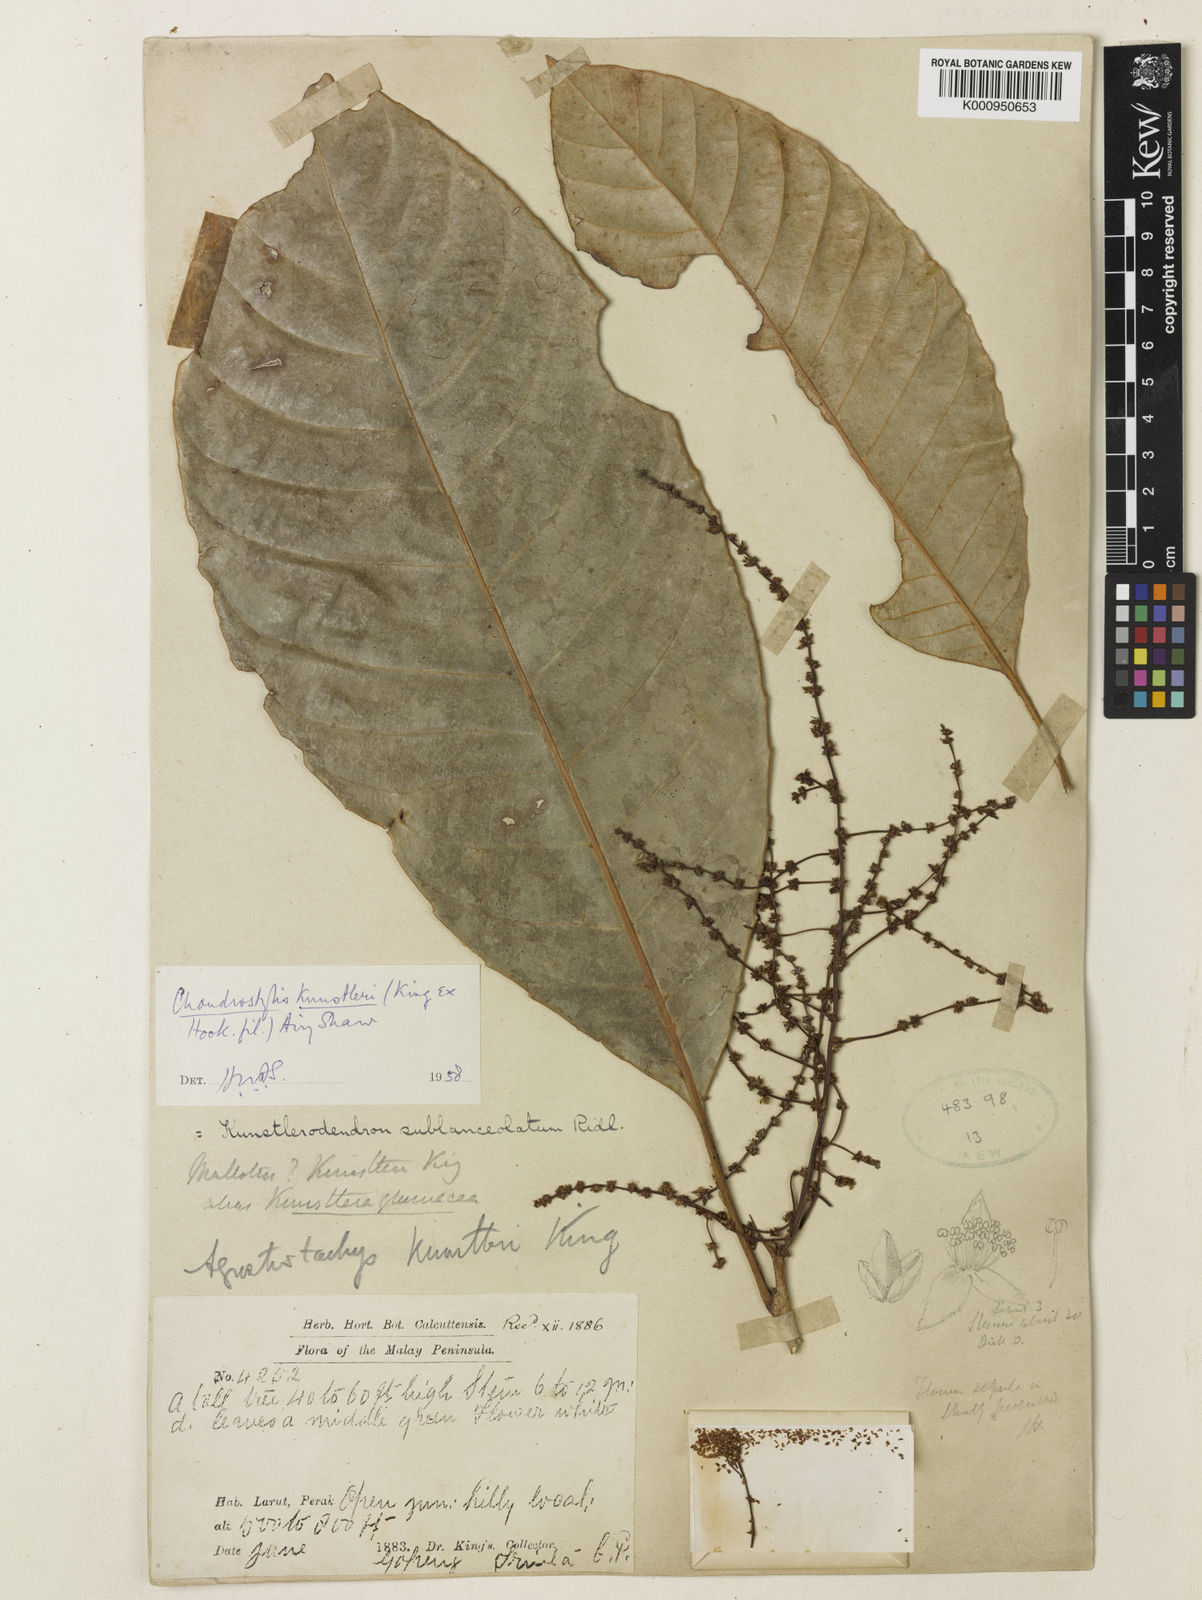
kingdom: Plantae
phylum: Tracheophyta
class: Magnoliopsida
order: Malpighiales
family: Euphorbiaceae
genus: Chondrostylis
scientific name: Chondrostylis kunstleri
